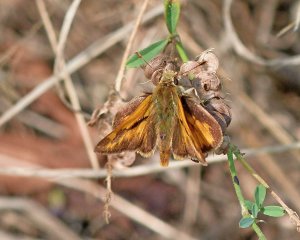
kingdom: Animalia
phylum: Arthropoda
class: Insecta
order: Lepidoptera
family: Hesperiidae
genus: Ochlodes
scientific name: Ochlodes sylvanoides
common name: Woodland Skipper
